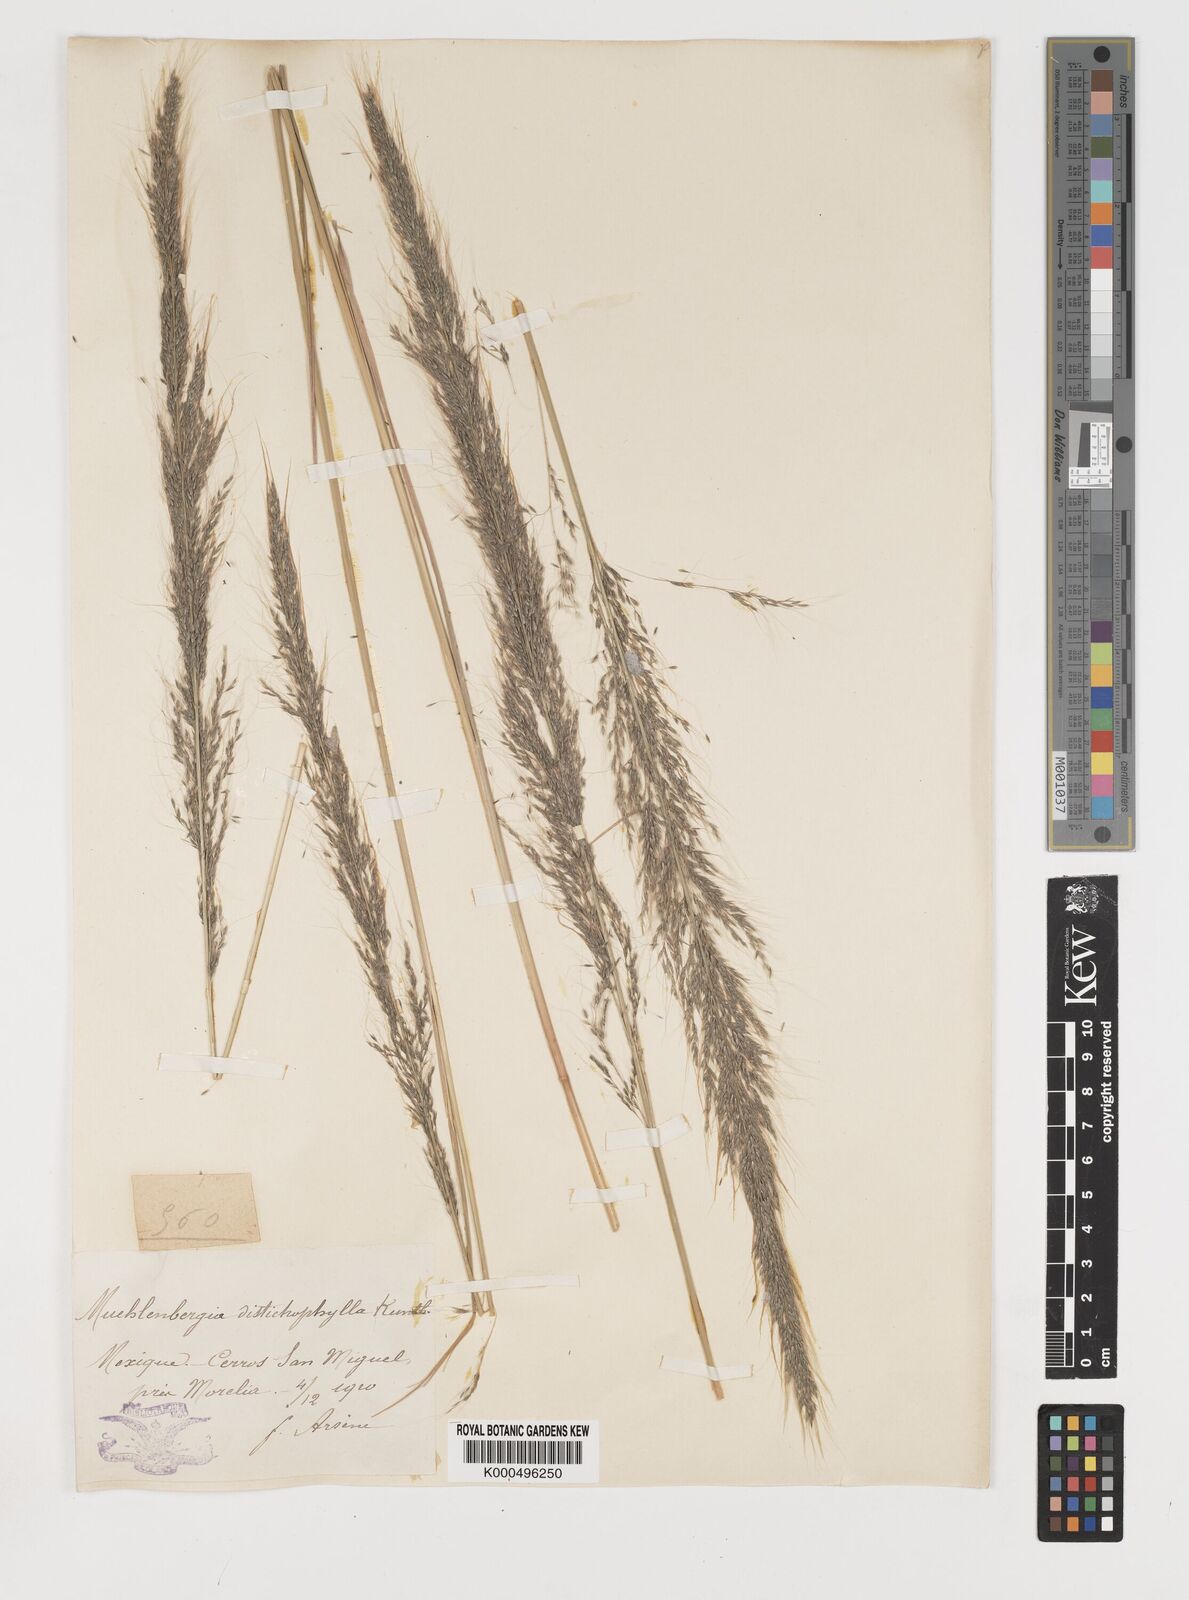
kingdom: Plantae
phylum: Tracheophyta
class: Liliopsida
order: Poales
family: Poaceae
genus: Muhlenbergia
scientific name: Muhlenbergia
